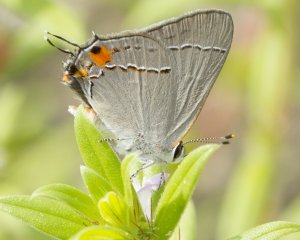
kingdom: Animalia
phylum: Arthropoda
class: Insecta
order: Lepidoptera
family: Lycaenidae
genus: Strymon
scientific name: Strymon melinus
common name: Gray Hairstreak
